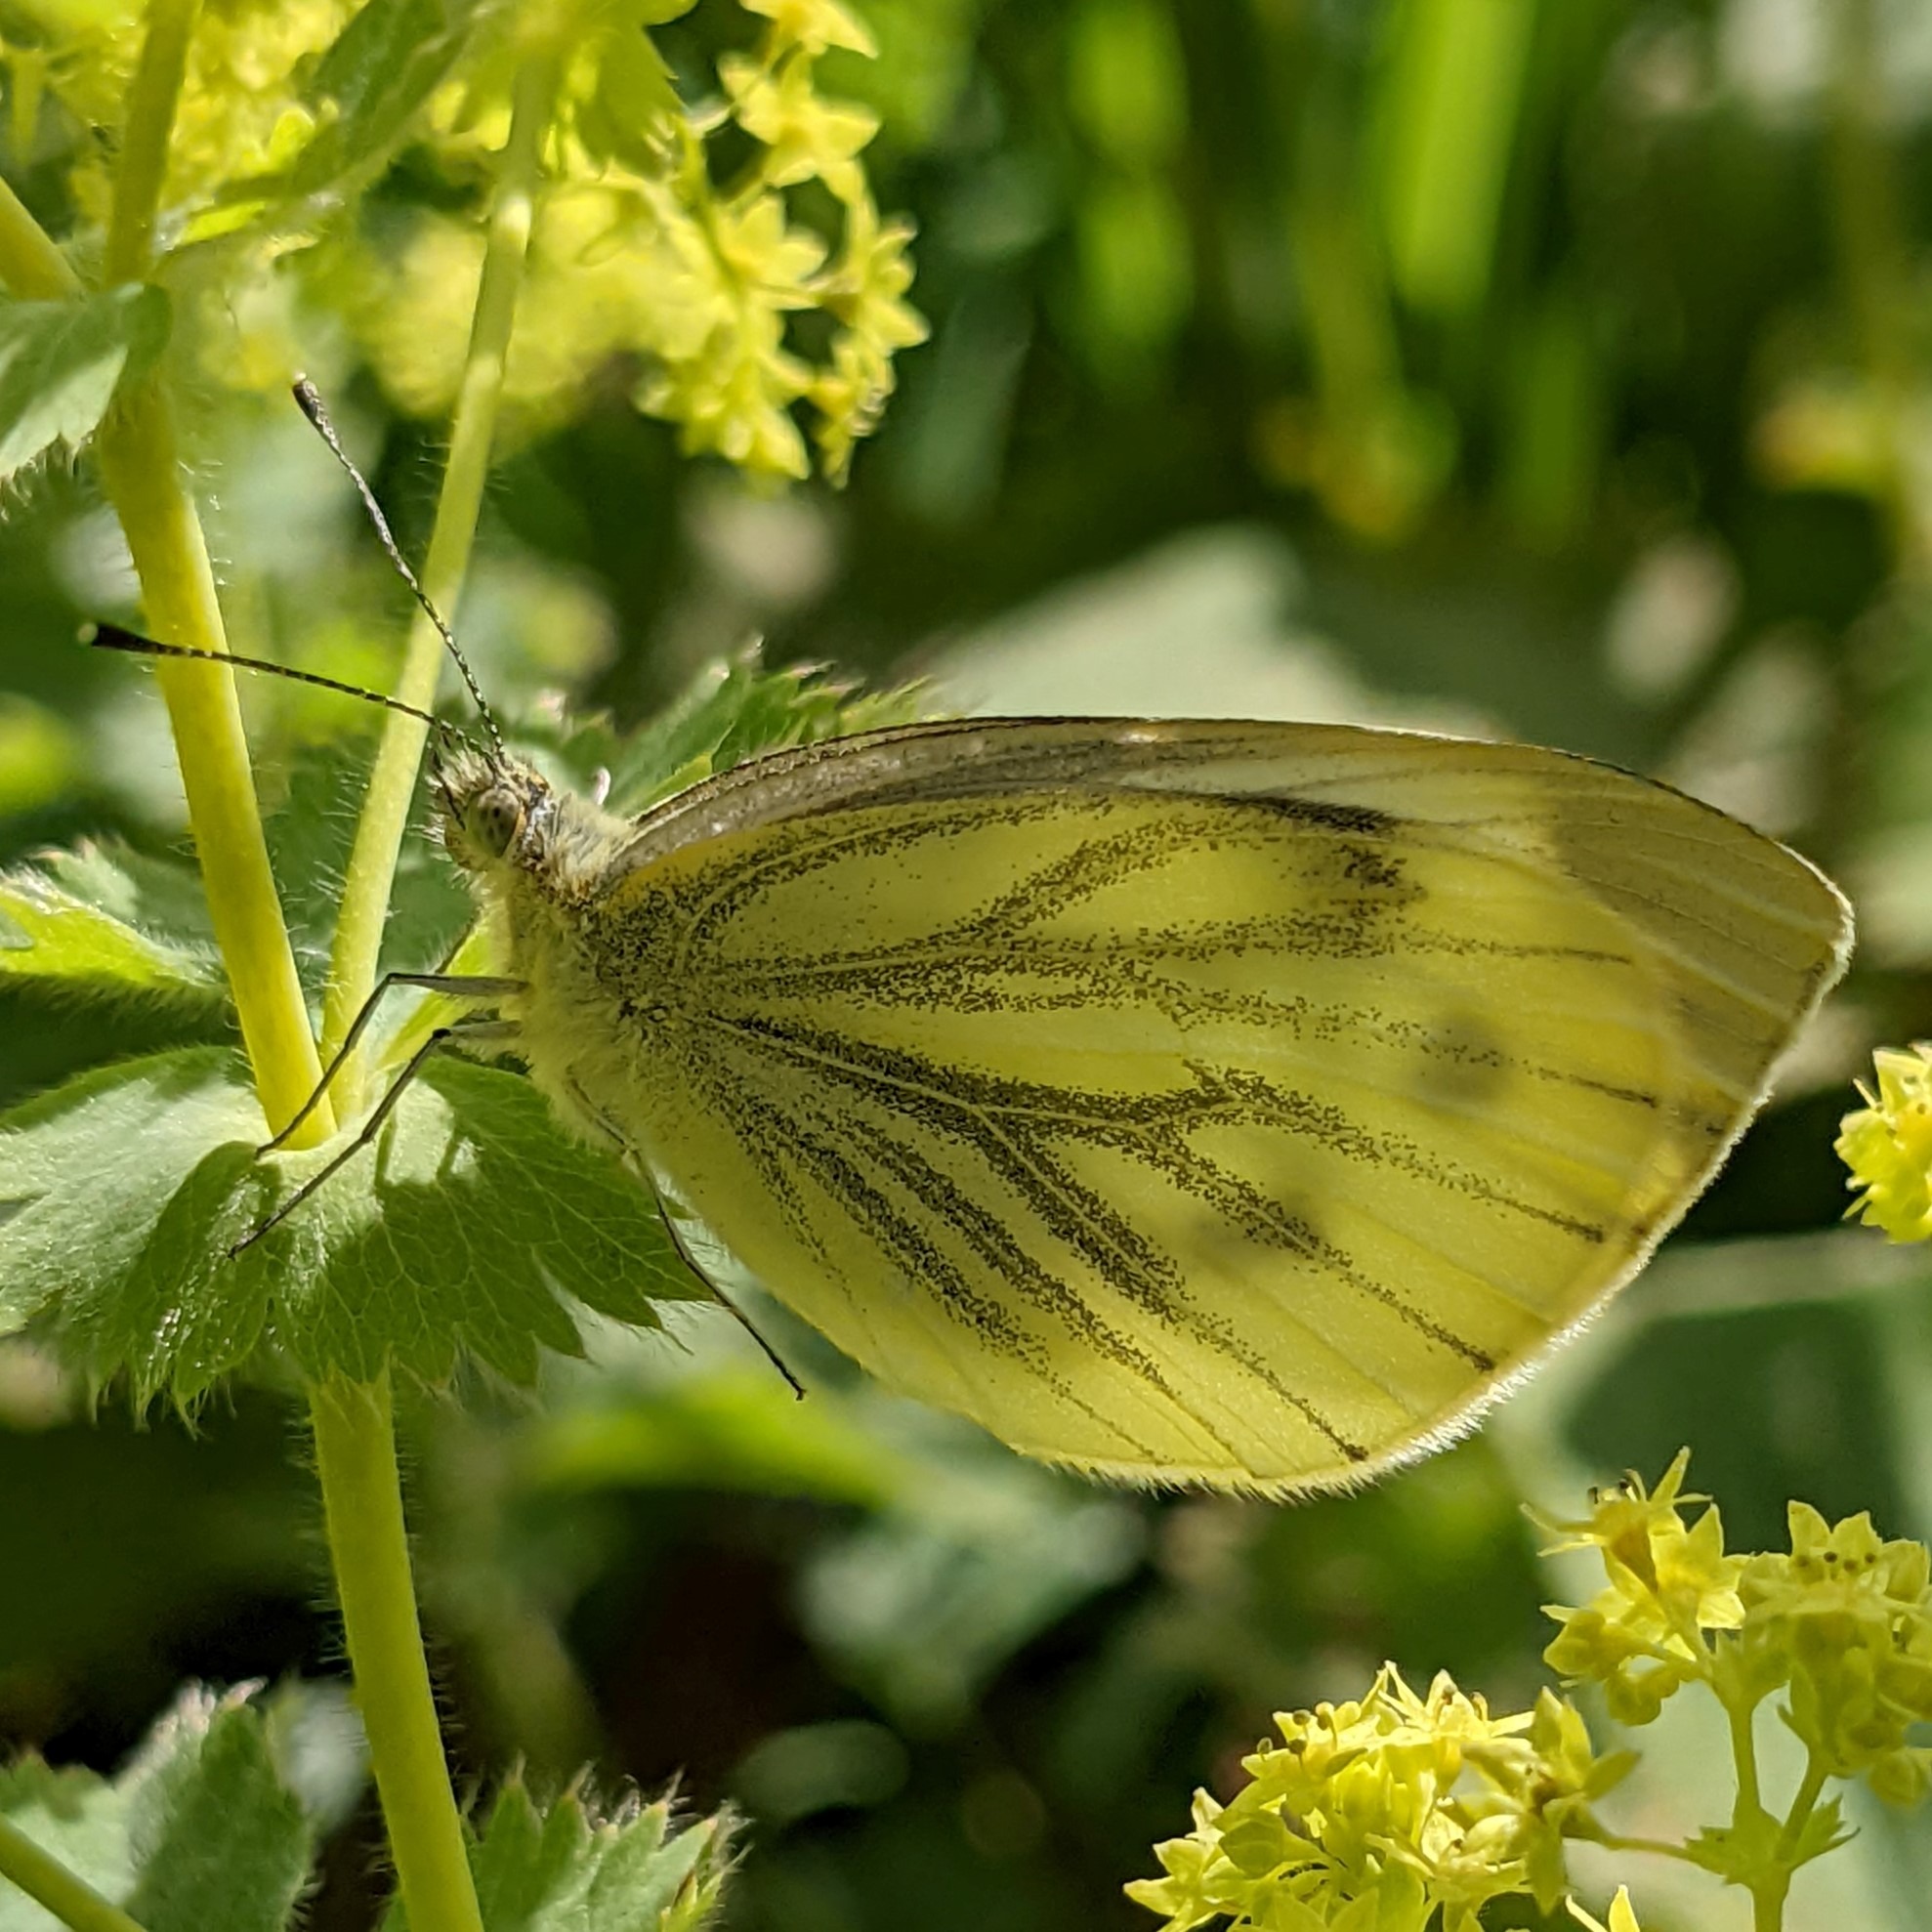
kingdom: Animalia
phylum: Arthropoda
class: Insecta
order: Lepidoptera
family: Pieridae
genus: Pieris
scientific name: Pieris napi
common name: Grønåret kålsommerfugl
